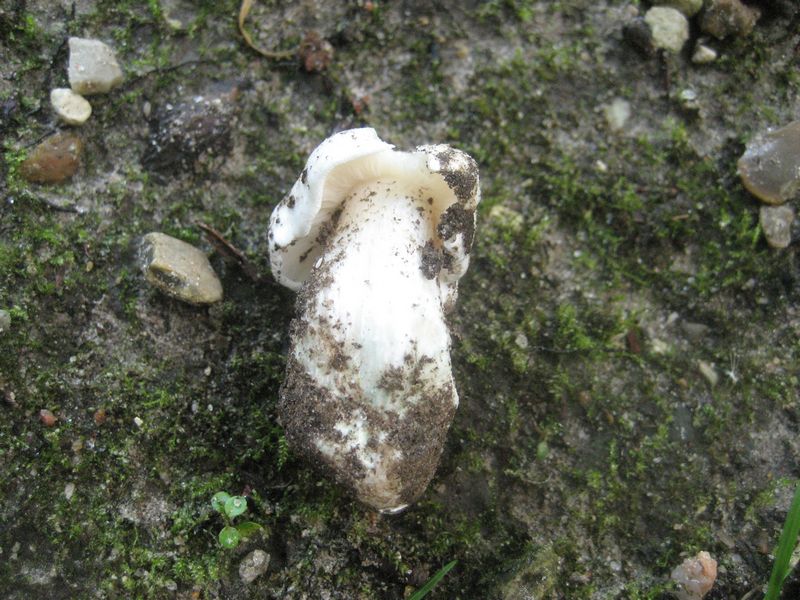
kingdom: Fungi
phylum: Basidiomycota
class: Agaricomycetes
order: Agaricales
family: Tricholomataceae
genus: Tricholoma
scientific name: Tricholoma columbetta
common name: silke-ridderhat
